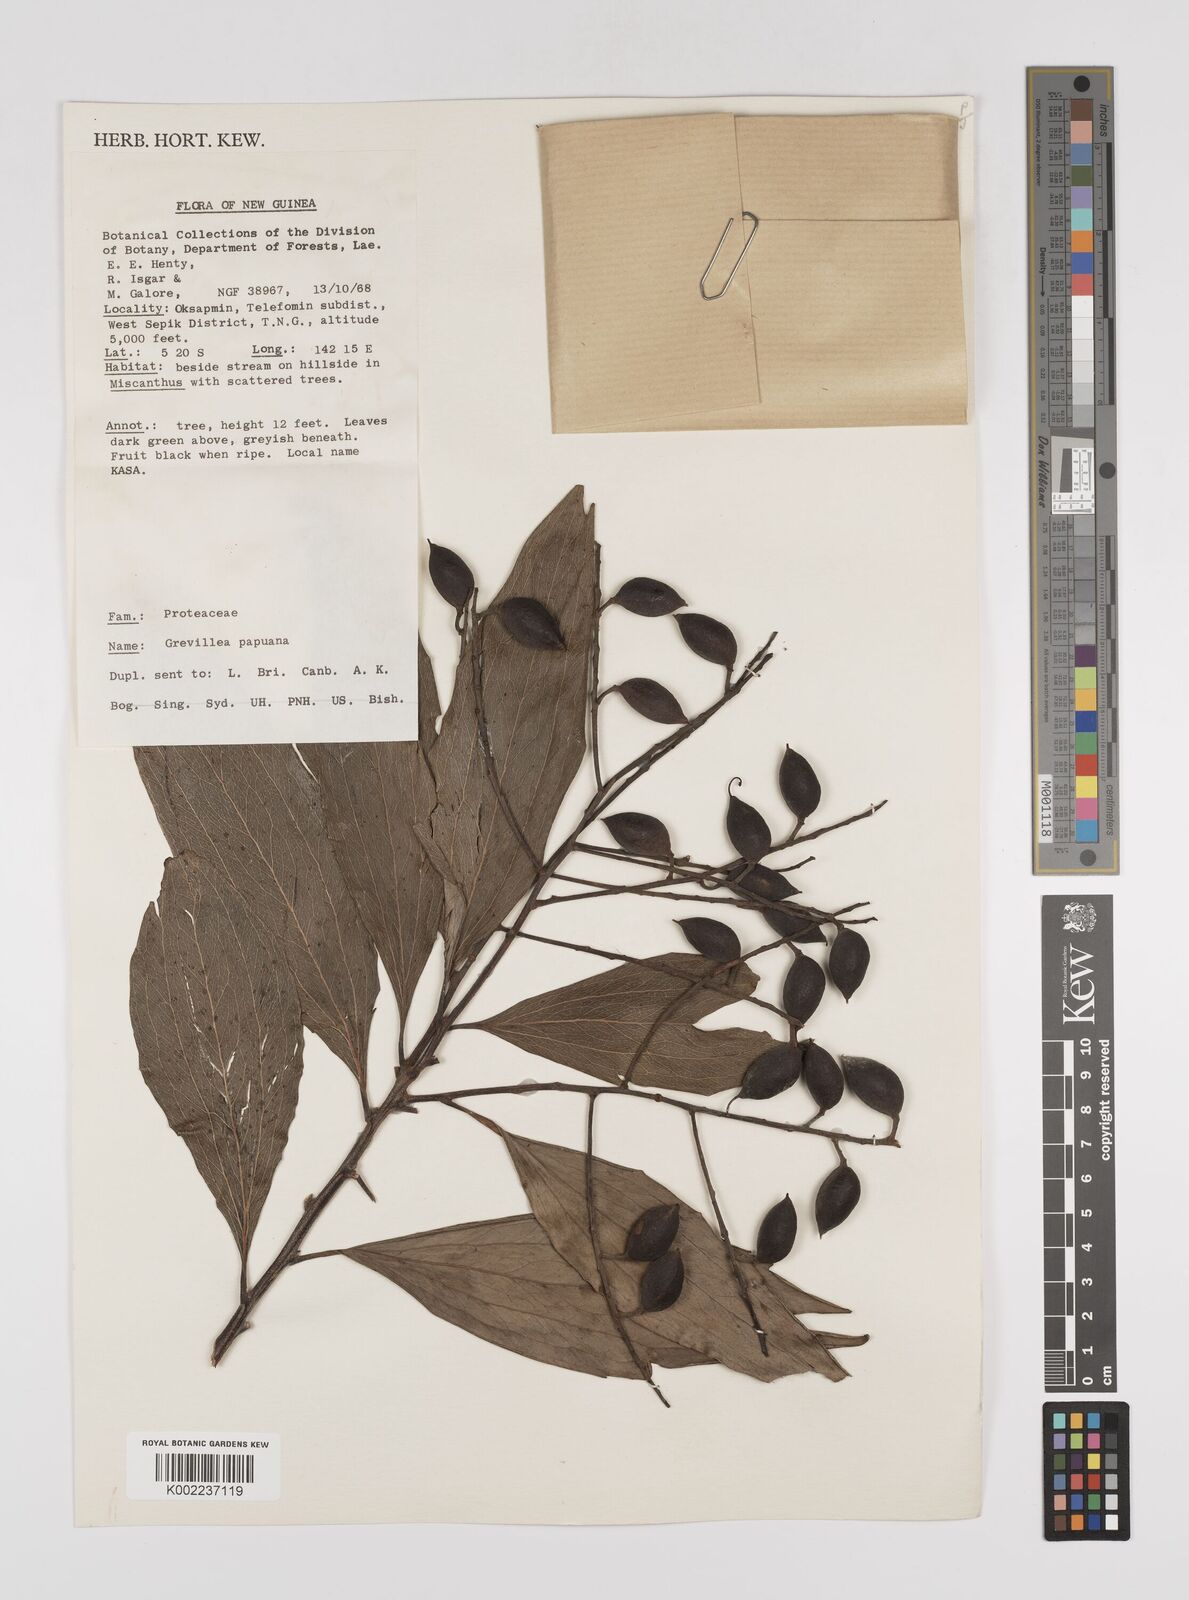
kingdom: Plantae
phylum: Tracheophyta
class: Magnoliopsida
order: Proteales
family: Proteaceae
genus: Grevillea
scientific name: Grevillea papuana
